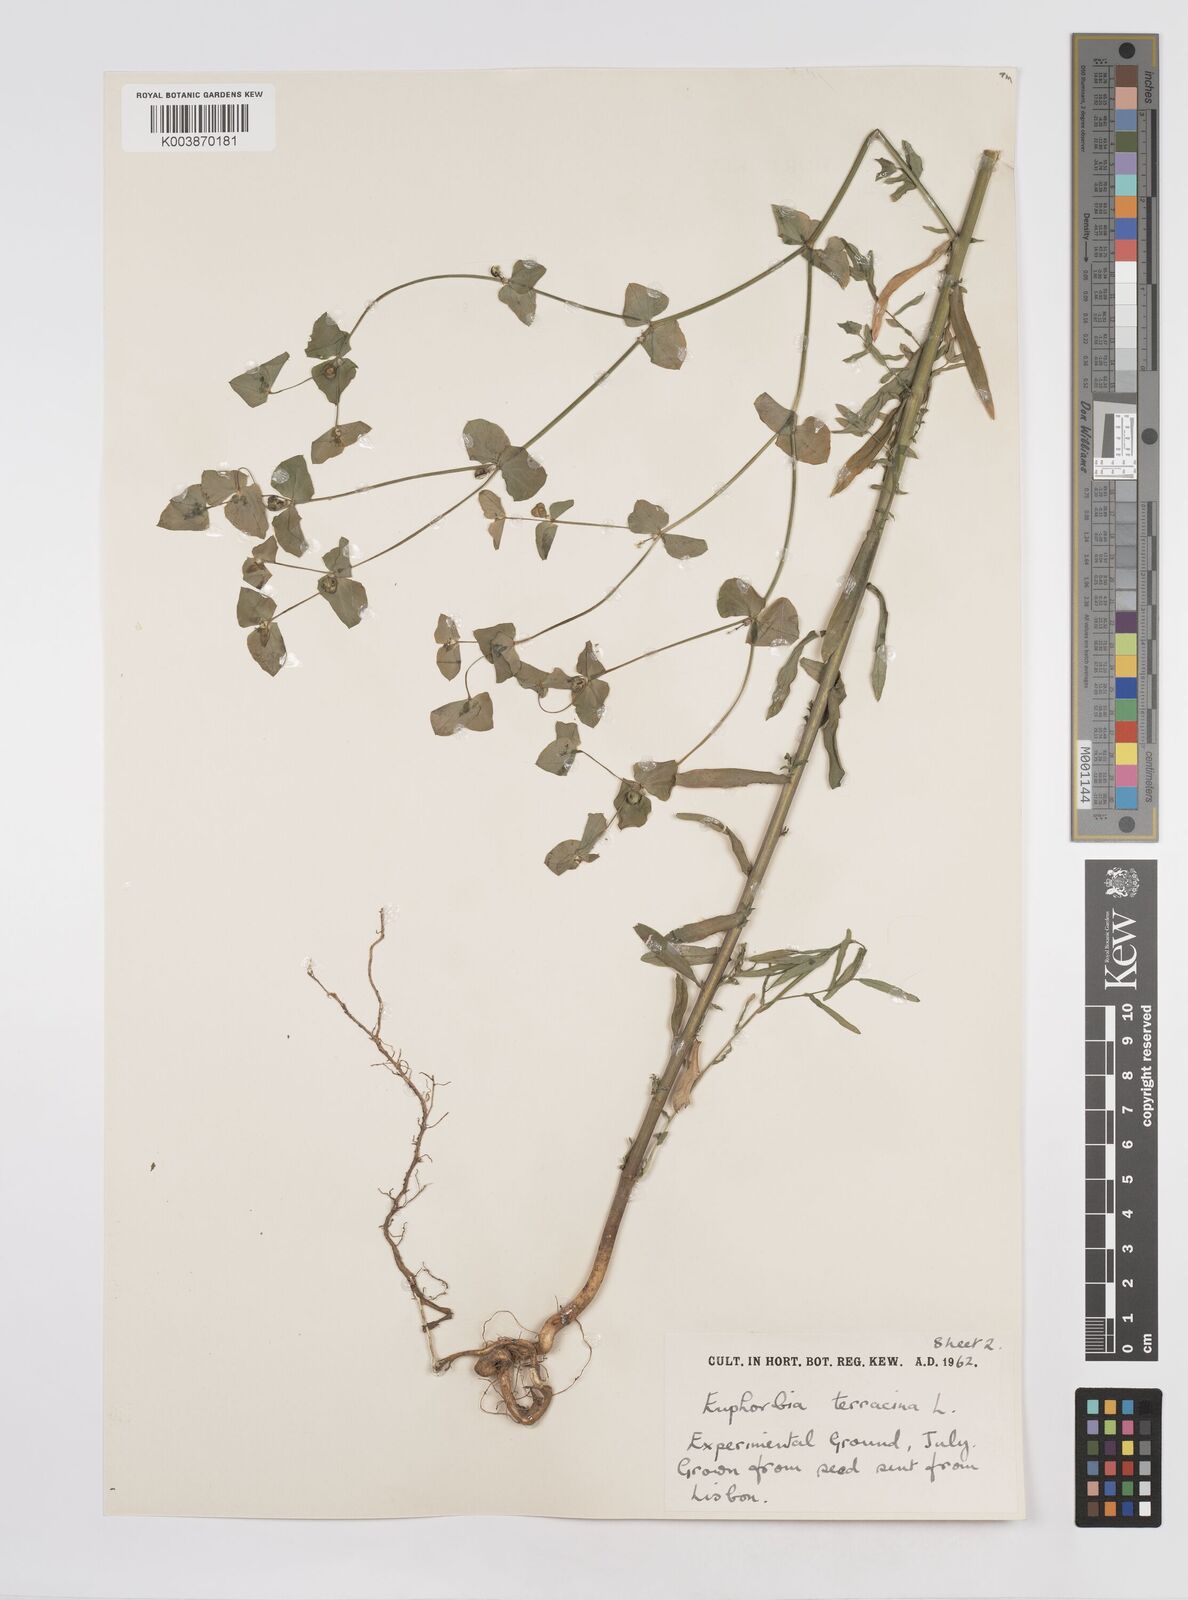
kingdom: Plantae
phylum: Tracheophyta
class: Magnoliopsida
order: Malpighiales
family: Euphorbiaceae
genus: Euphorbia
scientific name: Euphorbia terracina
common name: Geraldton carnation weed
